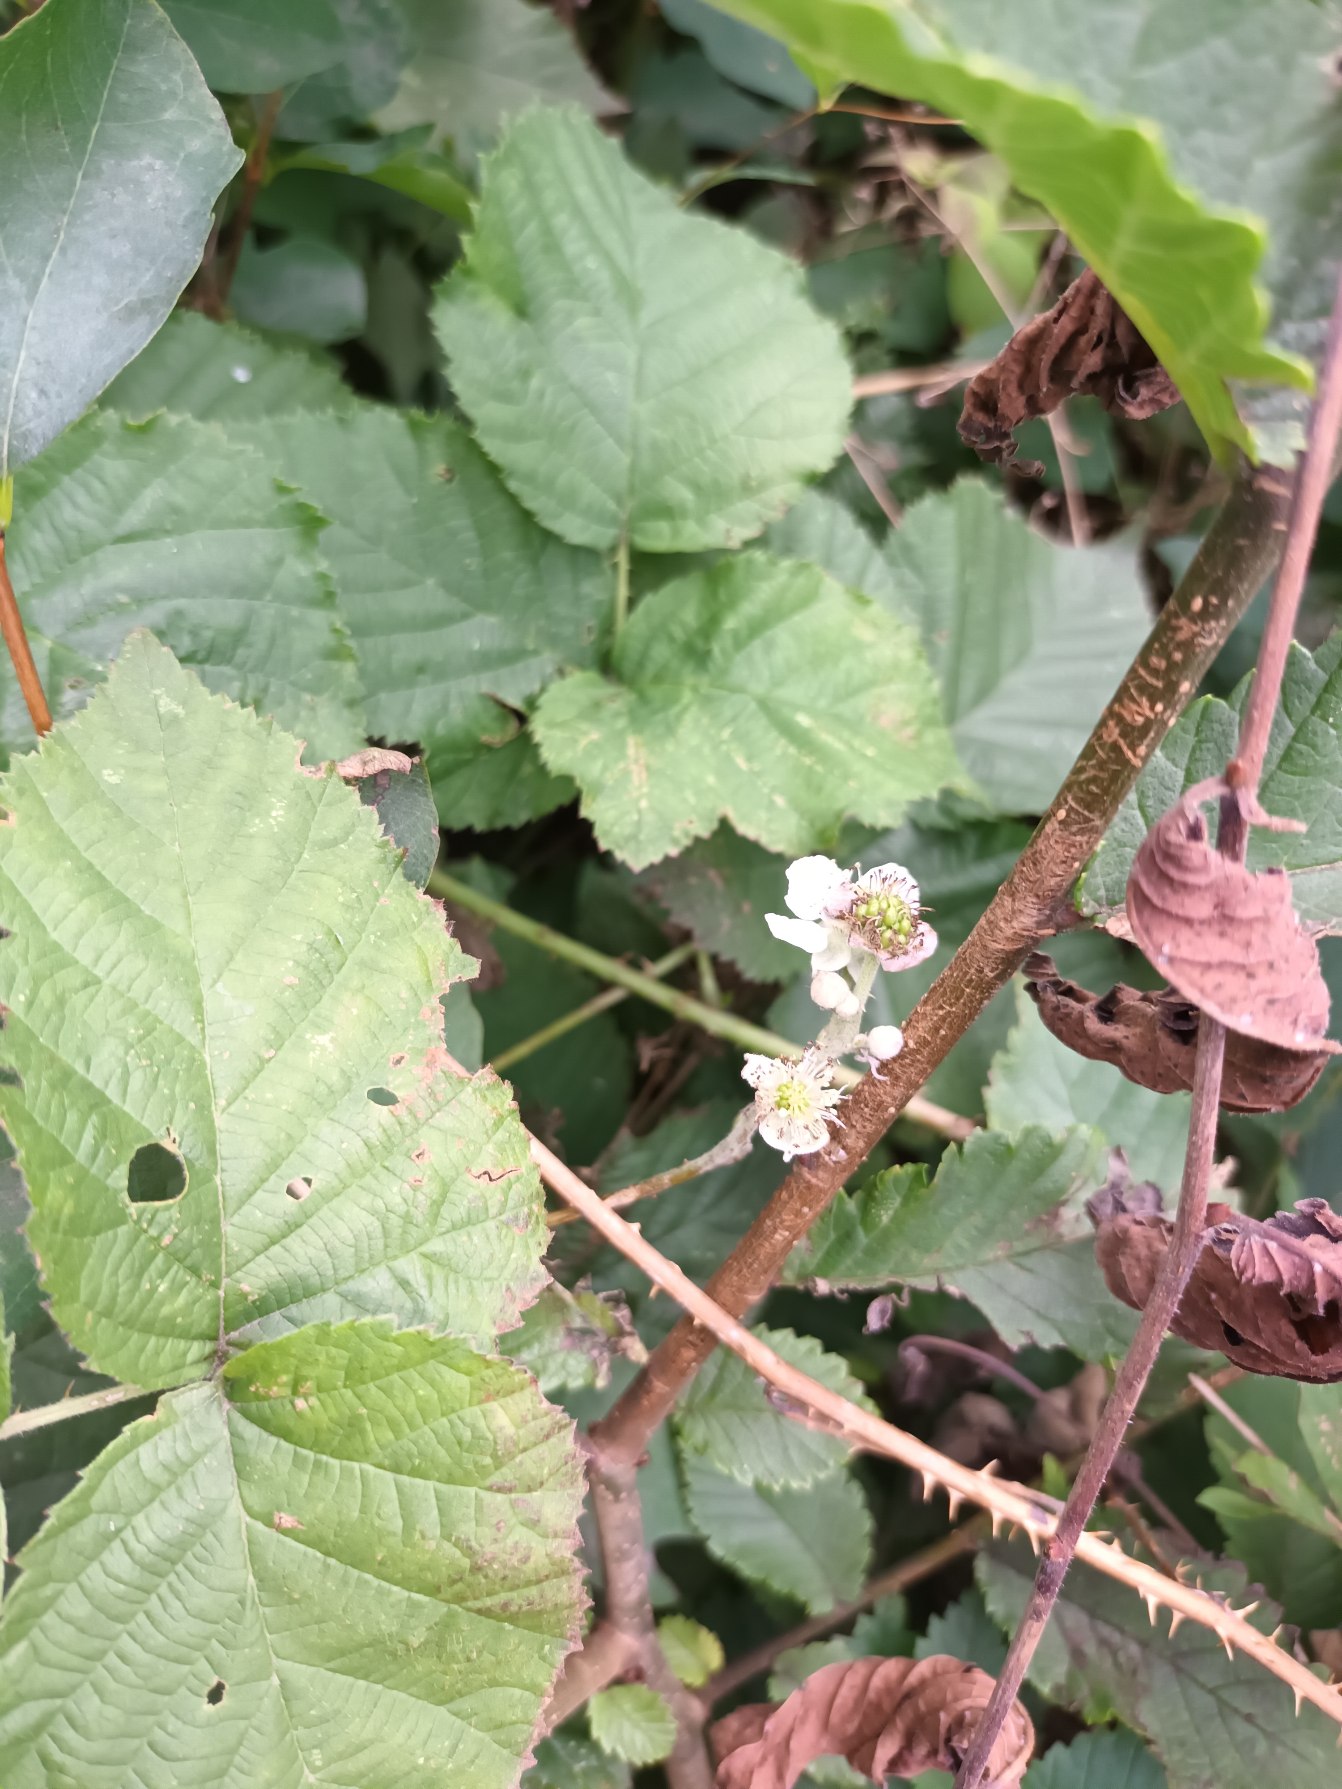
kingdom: Plantae
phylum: Tracheophyta
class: Magnoliopsida
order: Rosales
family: Rosaceae
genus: Rubus
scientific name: Rubus
